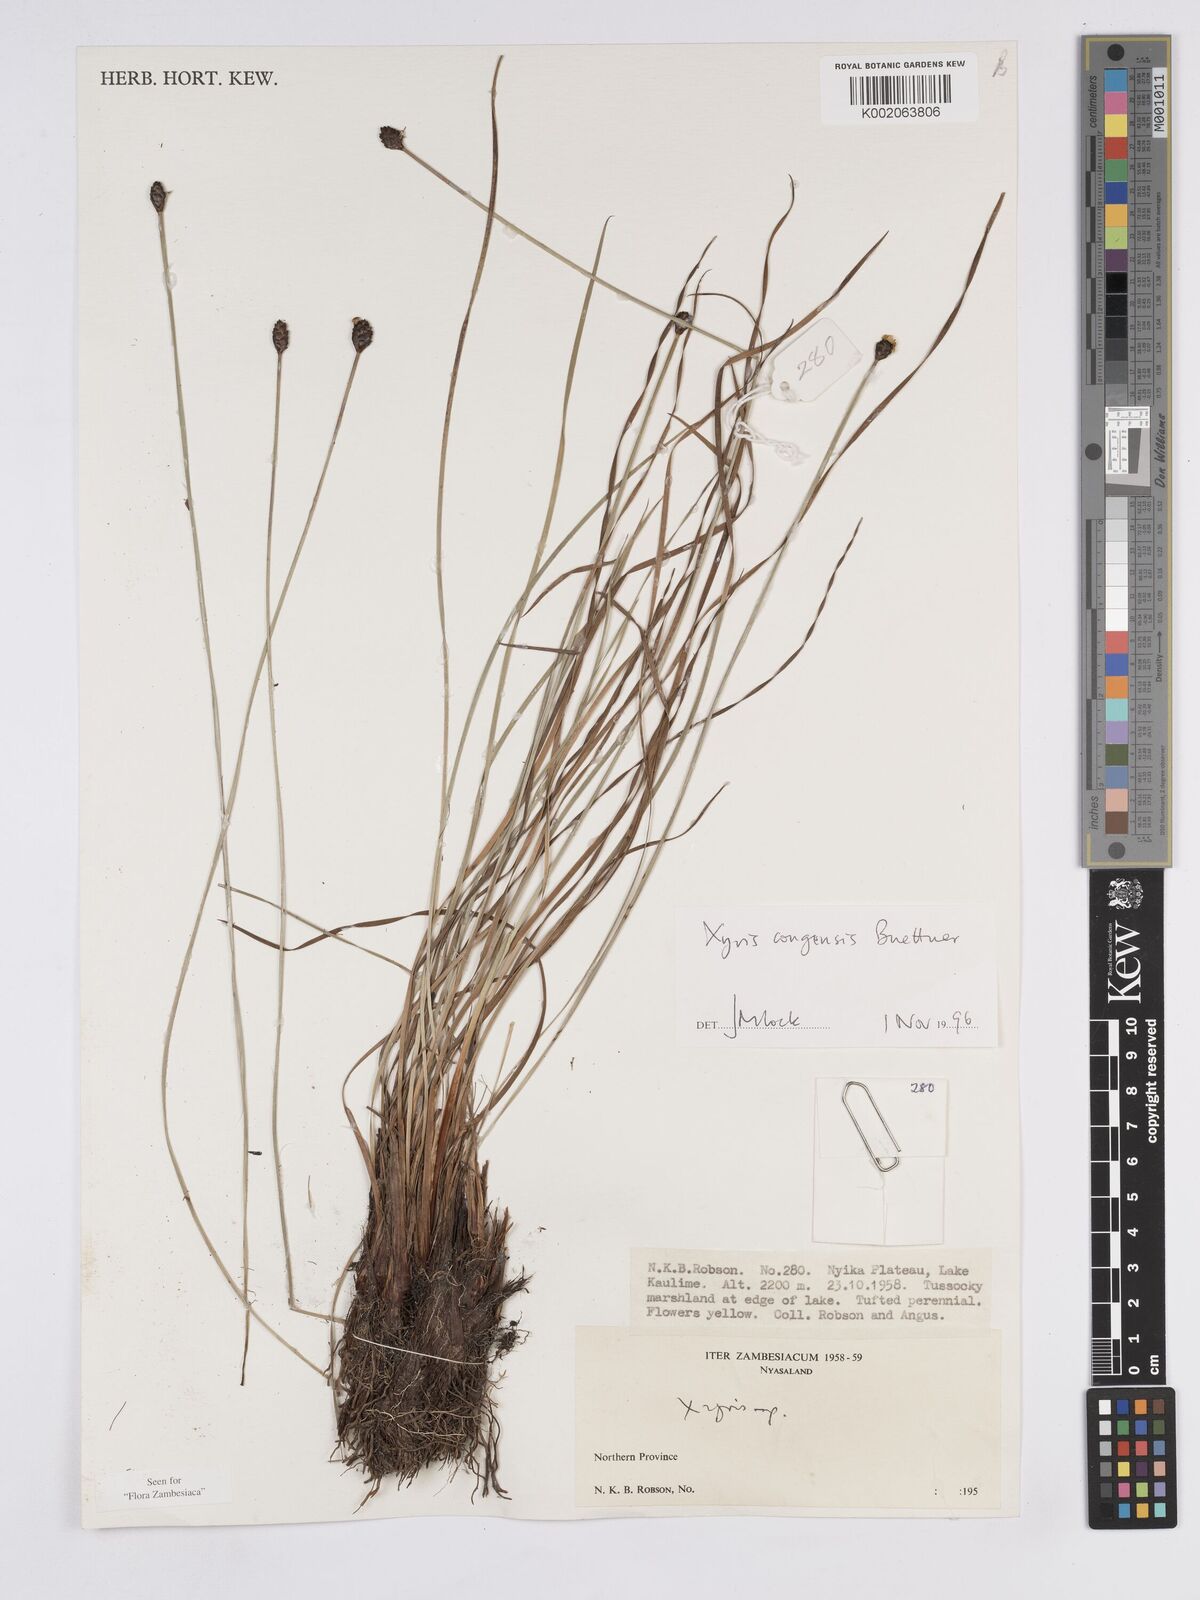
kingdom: Plantae
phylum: Tracheophyta
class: Liliopsida
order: Poales
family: Xyridaceae
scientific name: Xyridaceae
